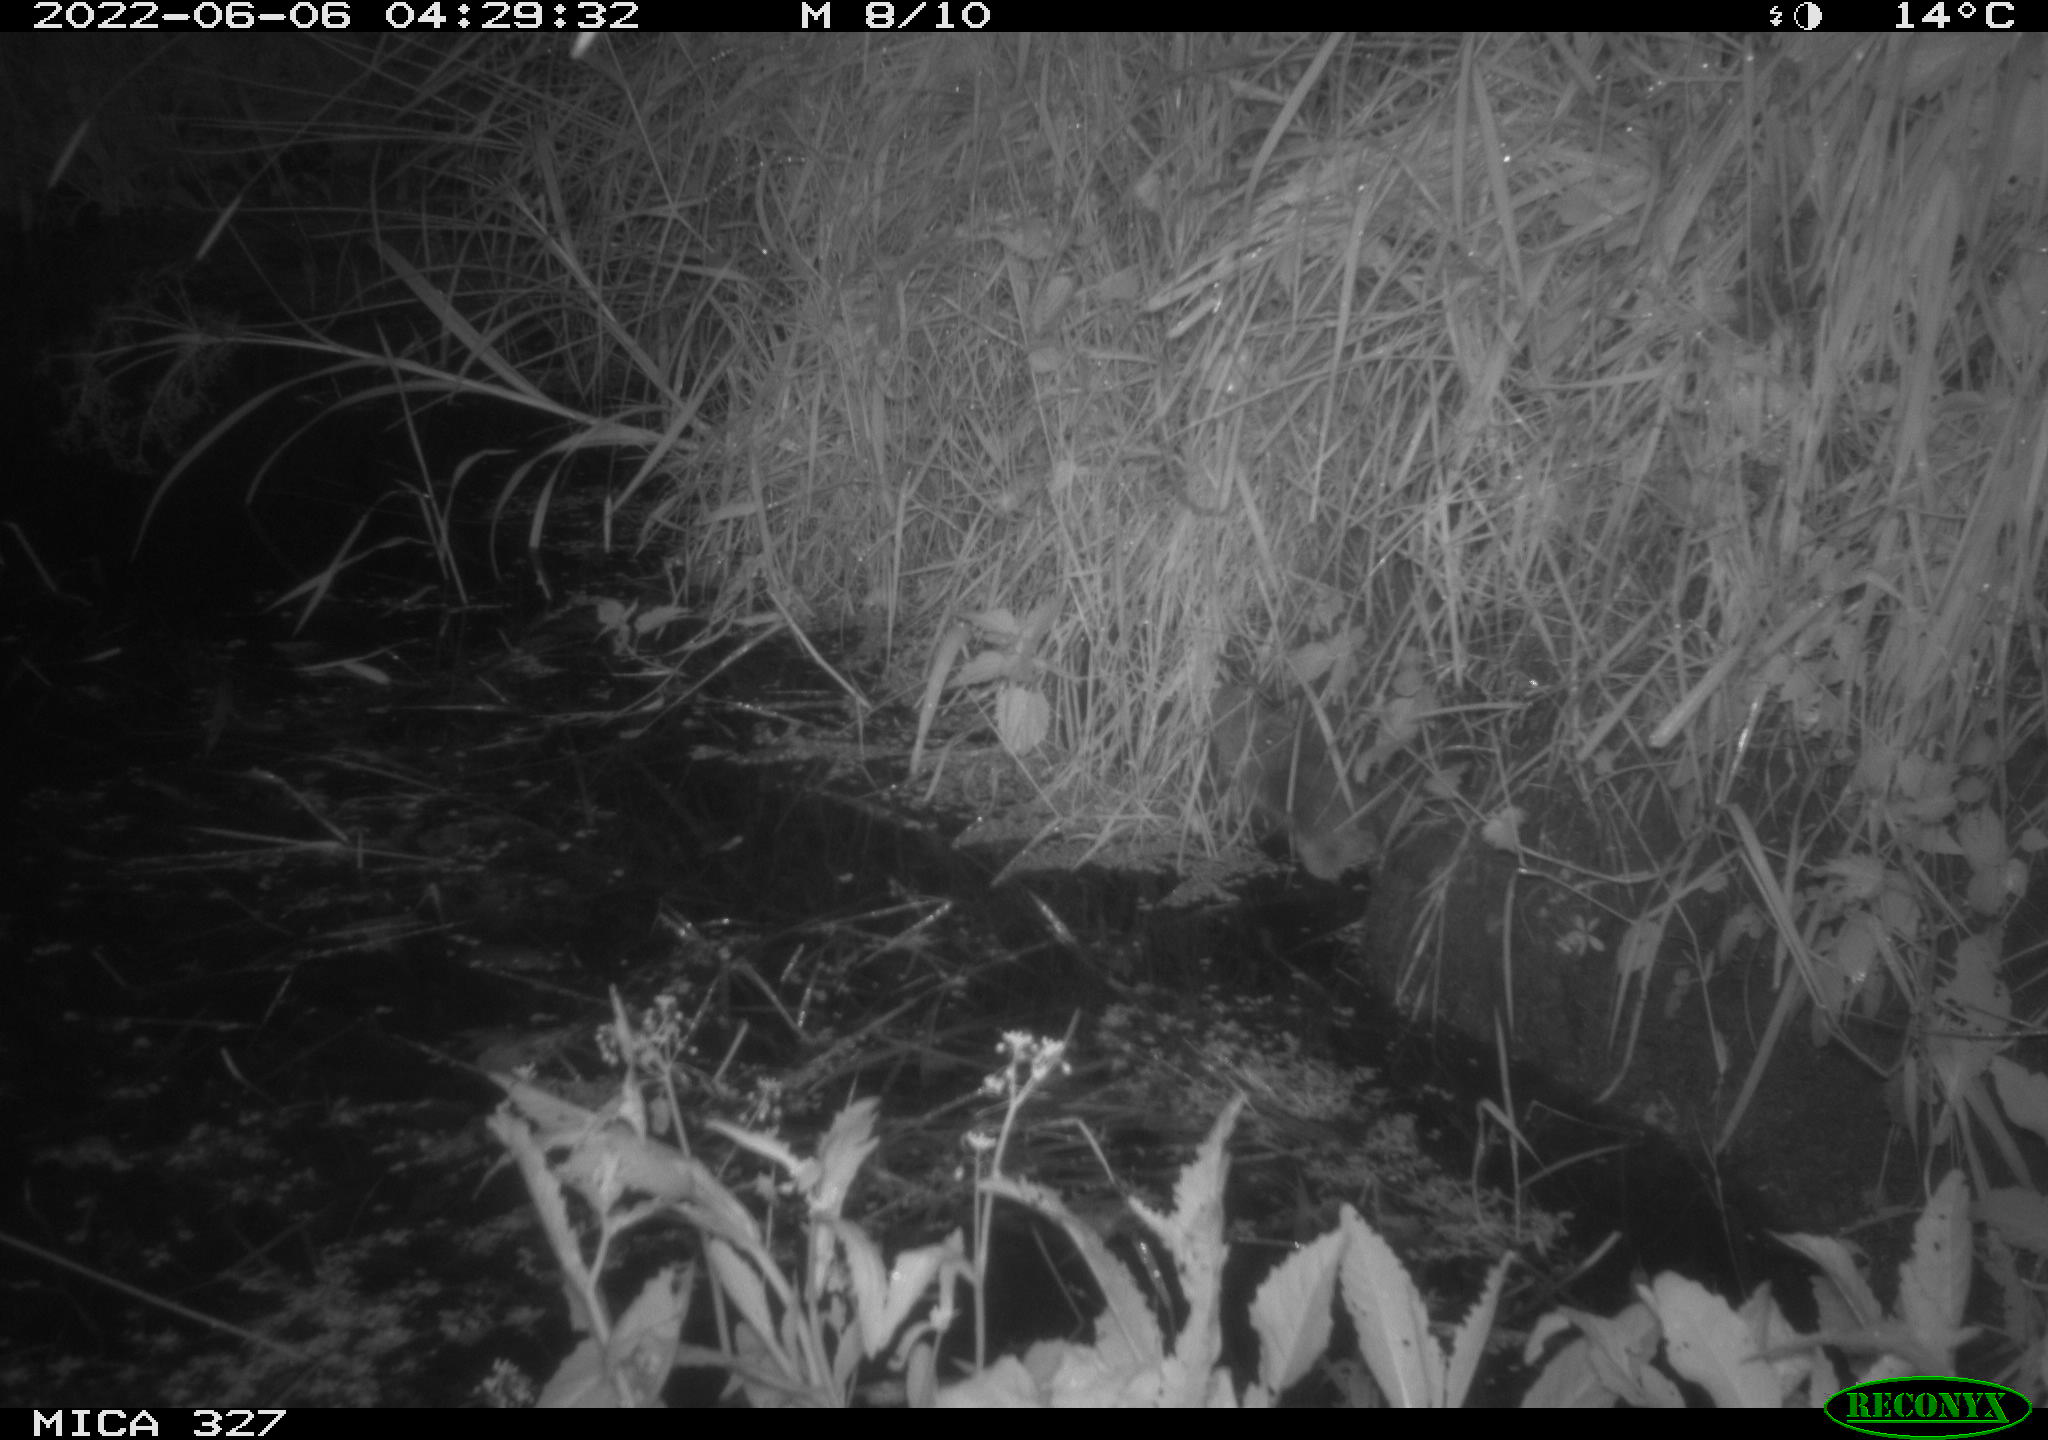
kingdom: Animalia
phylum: Chordata
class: Mammalia
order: Rodentia
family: Muridae
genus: Rattus
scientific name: Rattus norvegicus
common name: Brown rat
